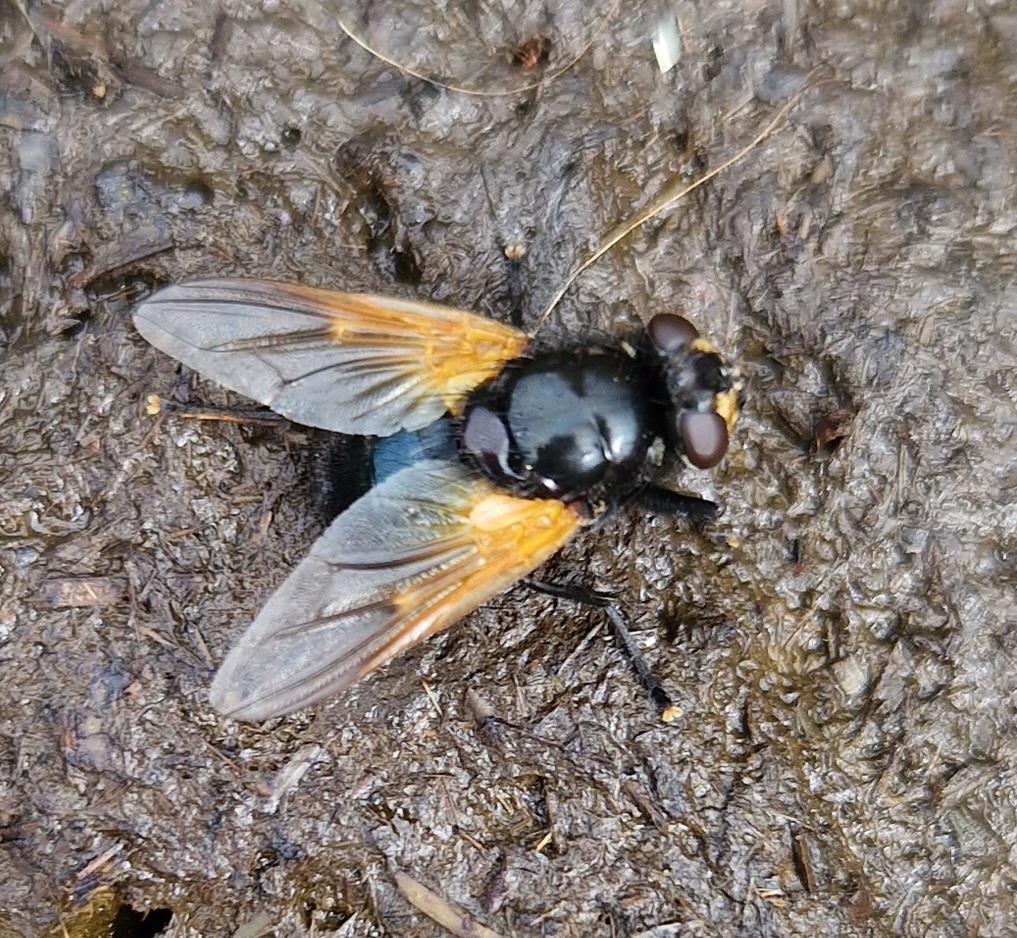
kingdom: Animalia
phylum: Arthropoda
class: Insecta
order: Diptera
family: Muscidae
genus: Mesembrina
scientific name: Mesembrina meridiana
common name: Gulvinget flue
